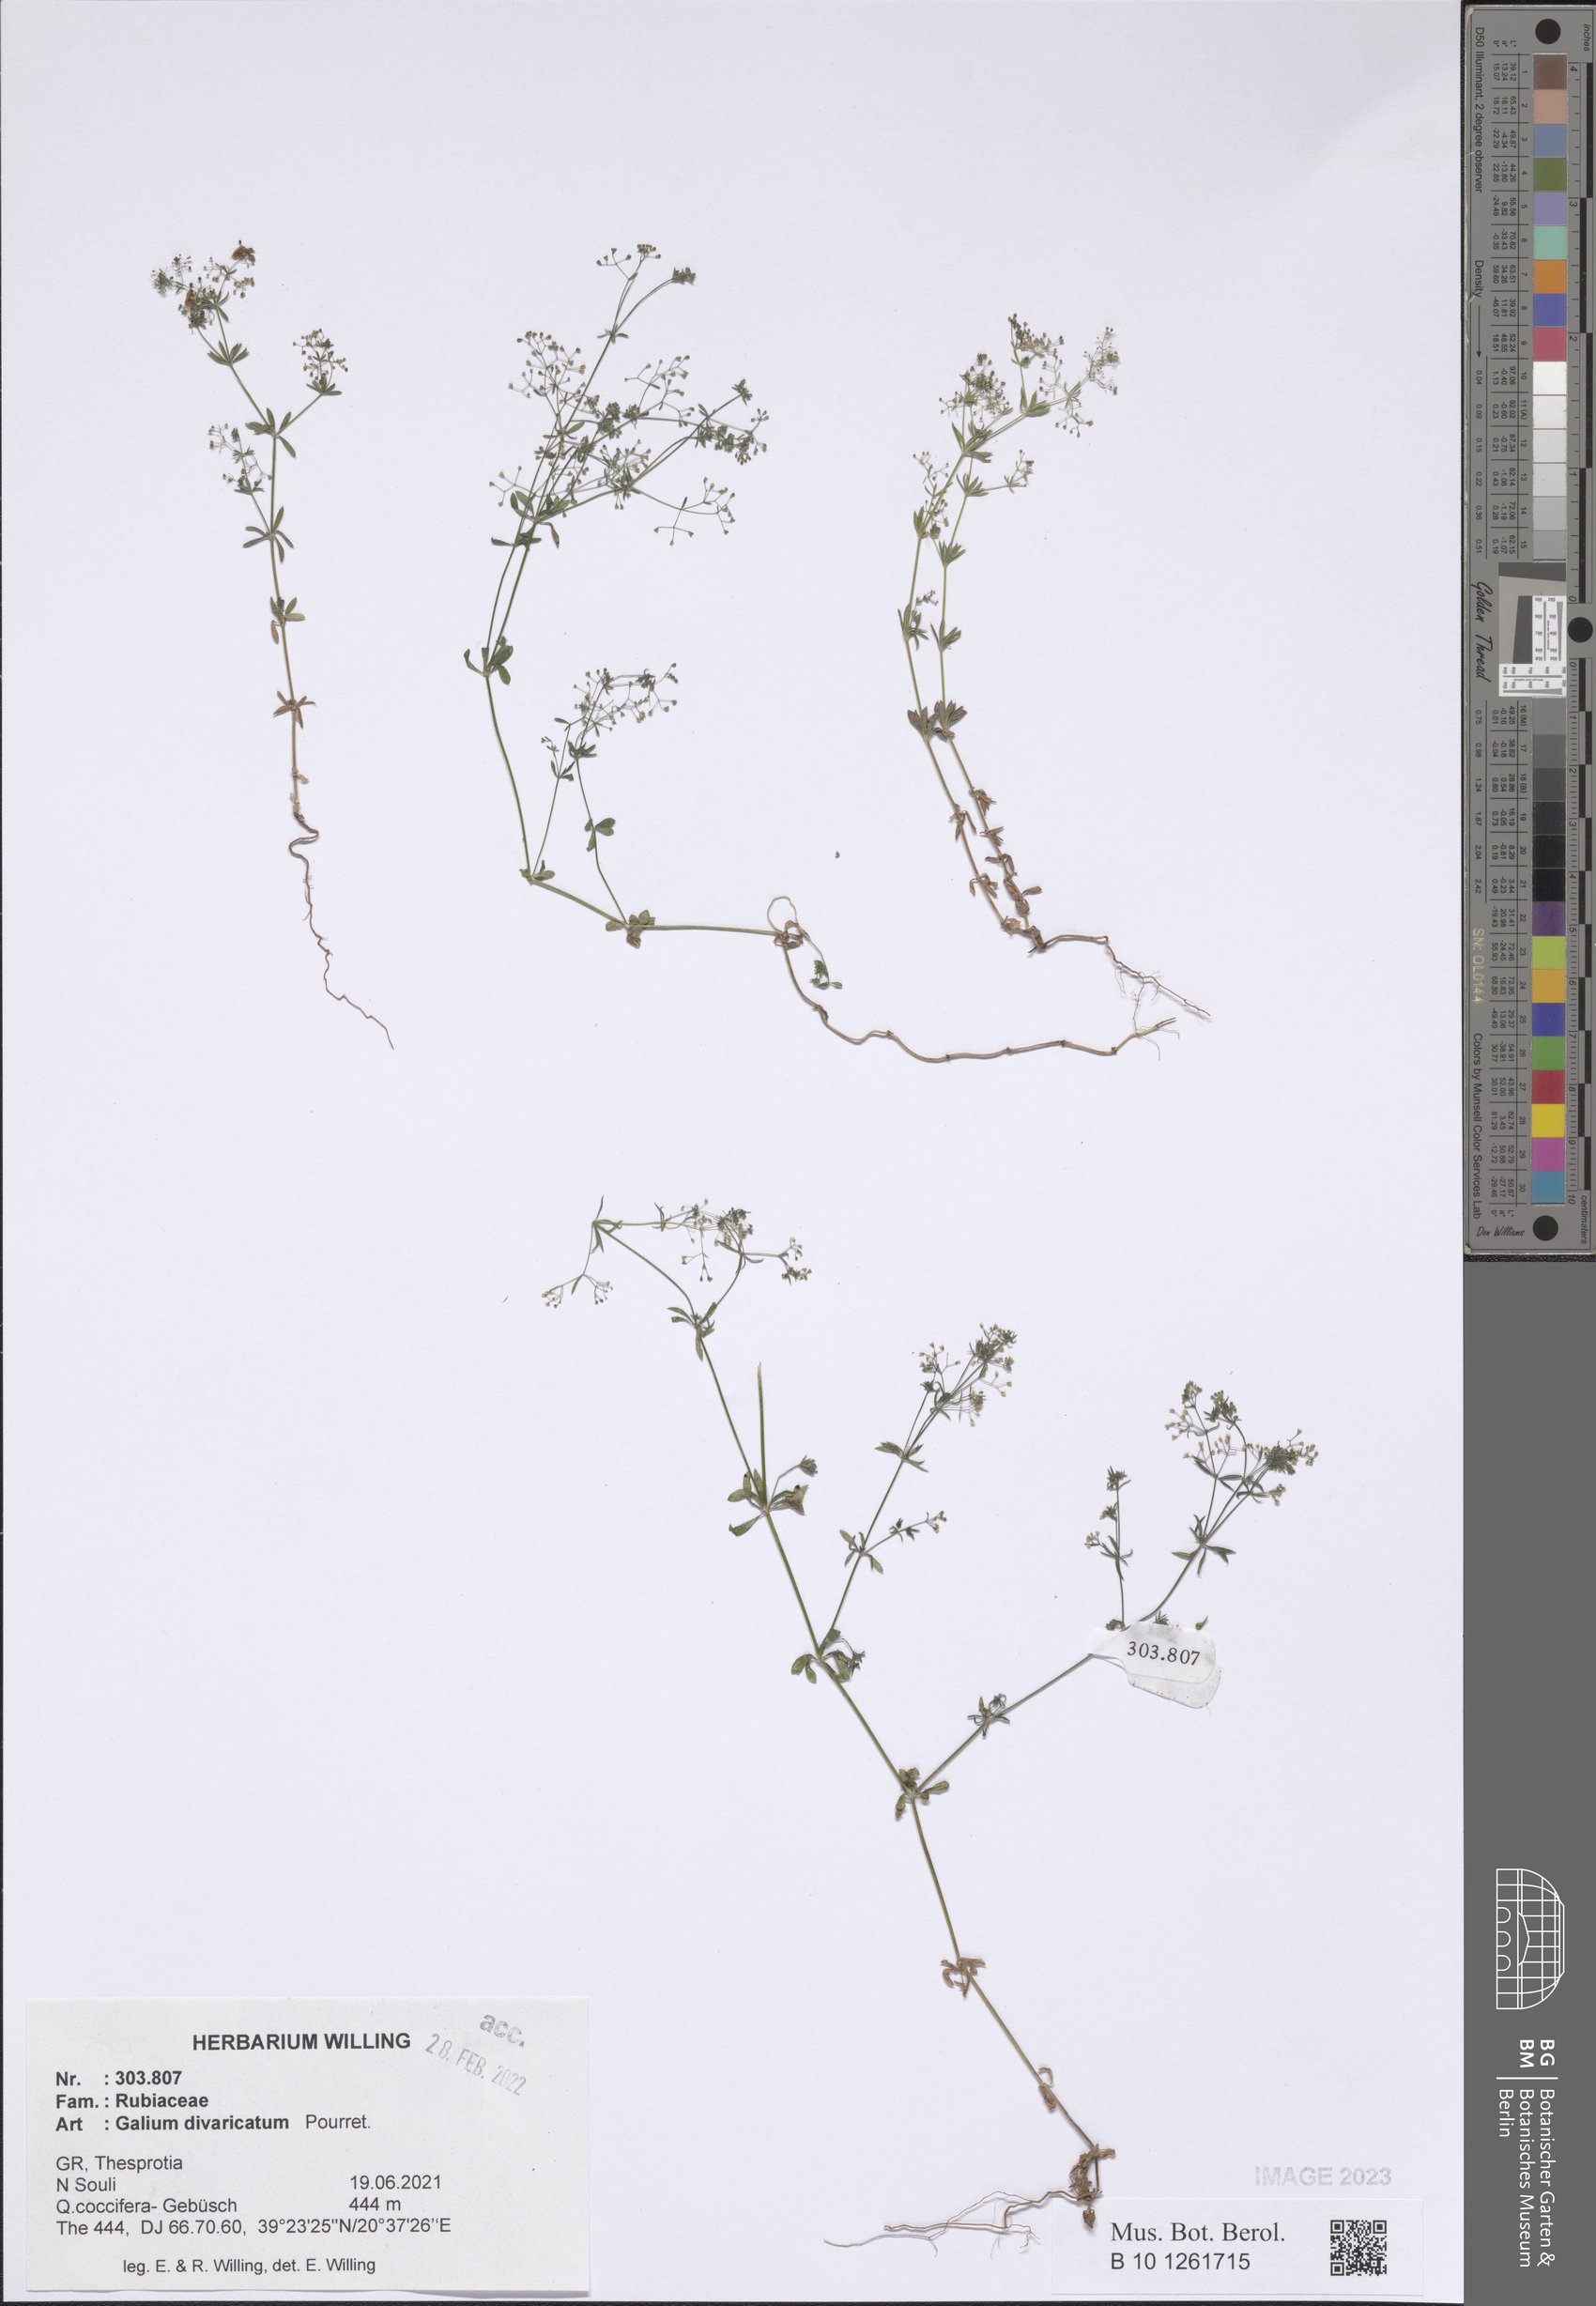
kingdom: Plantae
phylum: Tracheophyta
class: Magnoliopsida
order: Gentianales
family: Rubiaceae
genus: Galium
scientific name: Galium divaricatum
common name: Lamarck's bedstraw
